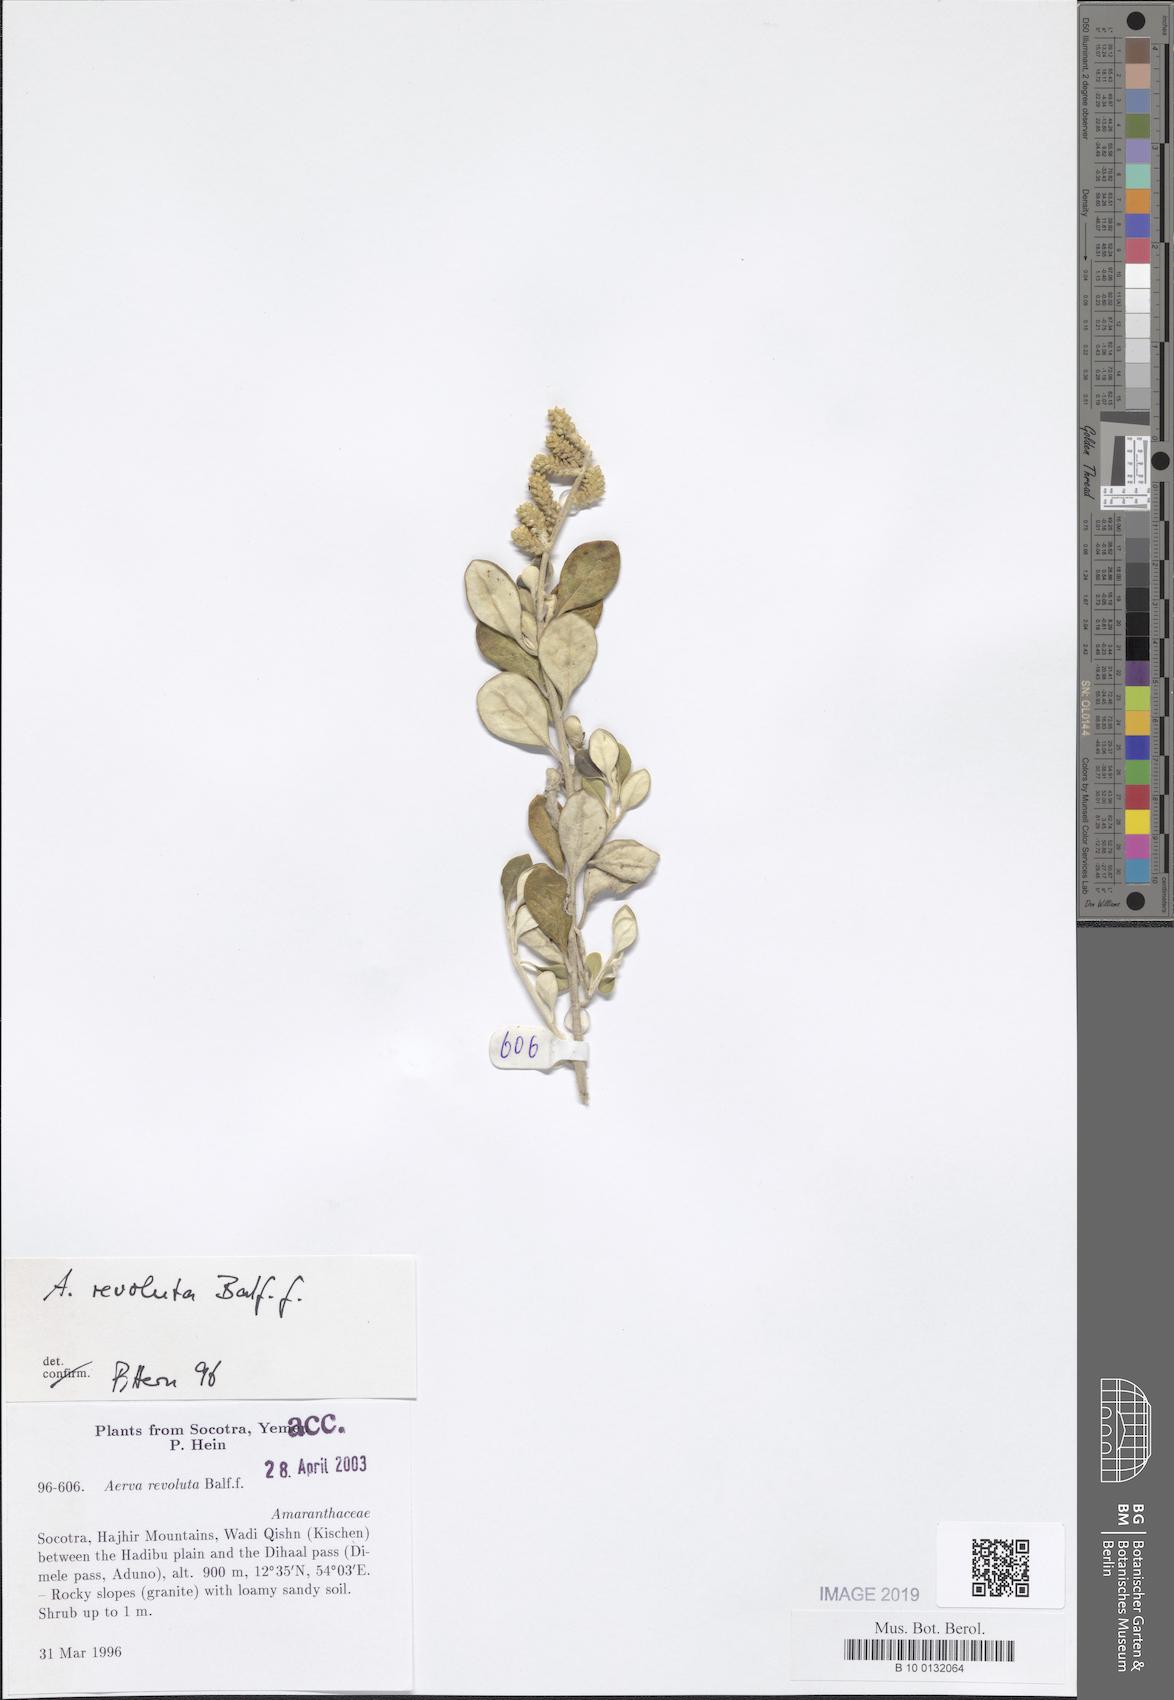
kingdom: Plantae
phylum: Tracheophyta
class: Magnoliopsida
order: Caryophyllales
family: Amaranthaceae
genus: Paraerva
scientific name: Paraerva revoluta
